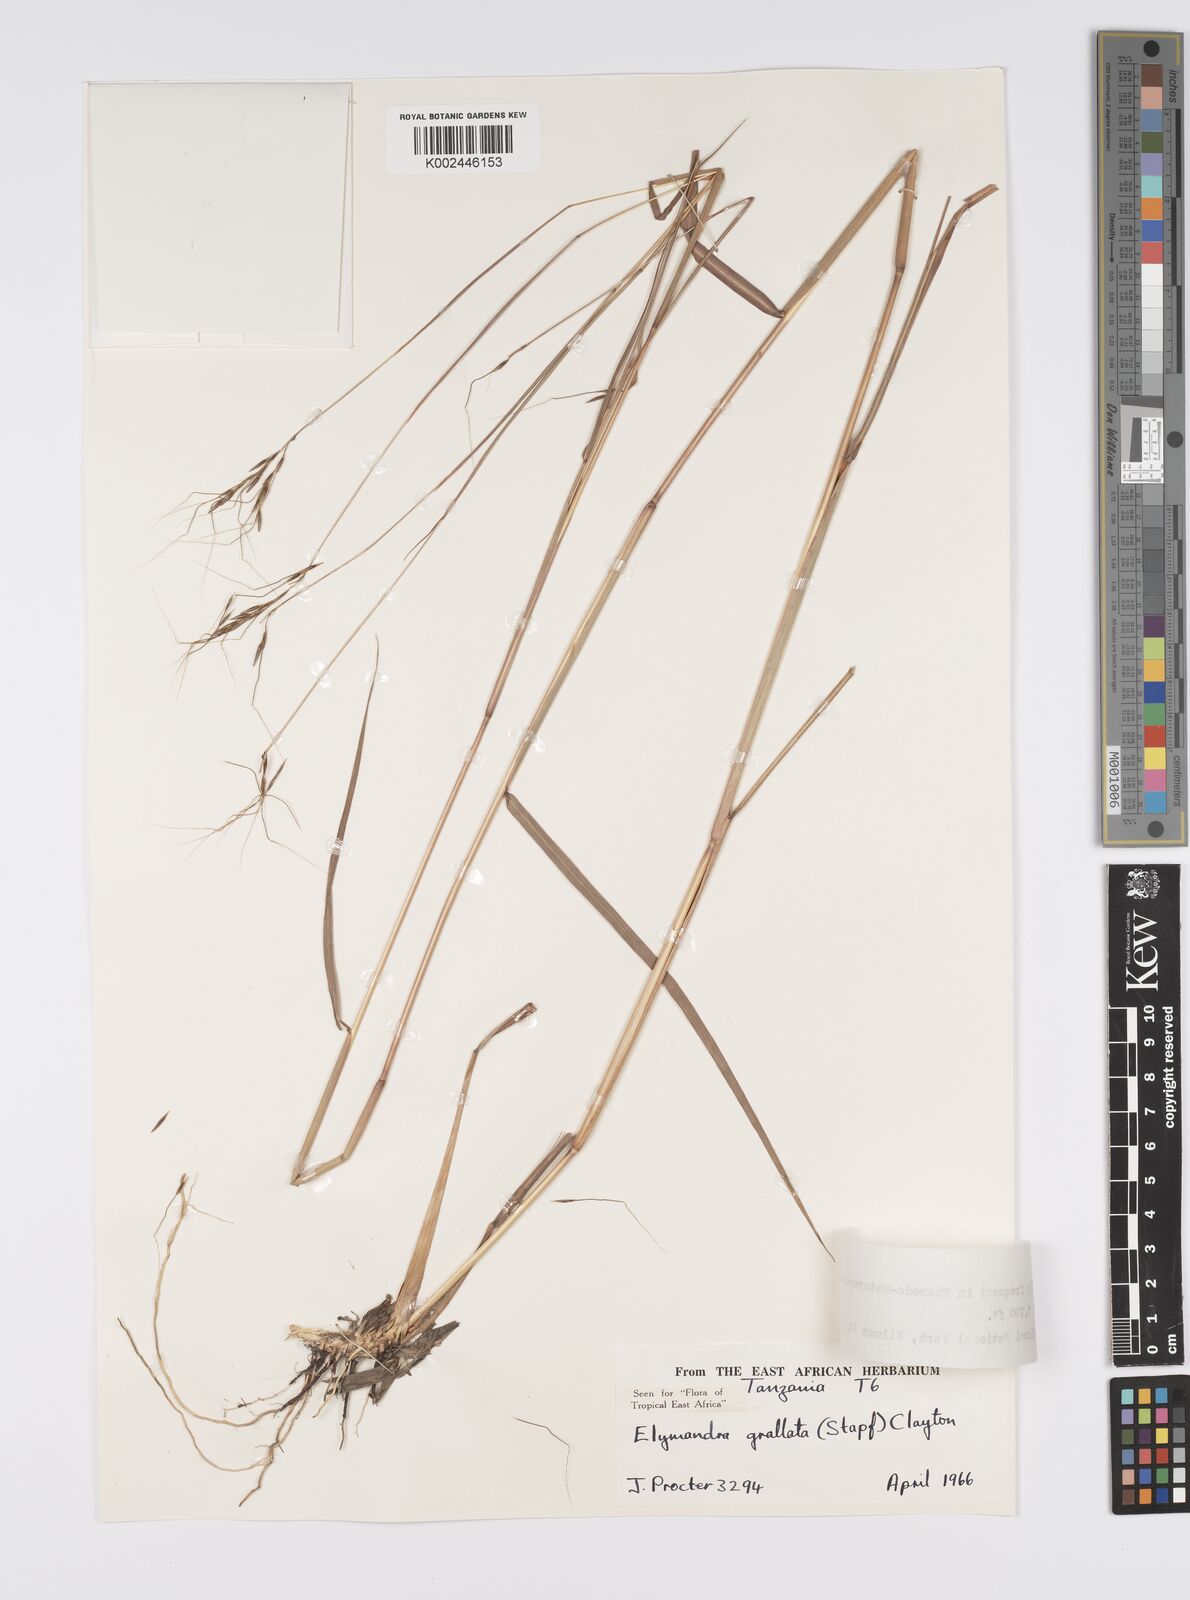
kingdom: Plantae
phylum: Tracheophyta
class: Liliopsida
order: Poales
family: Poaceae
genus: Elymandra
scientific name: Elymandra grallata
